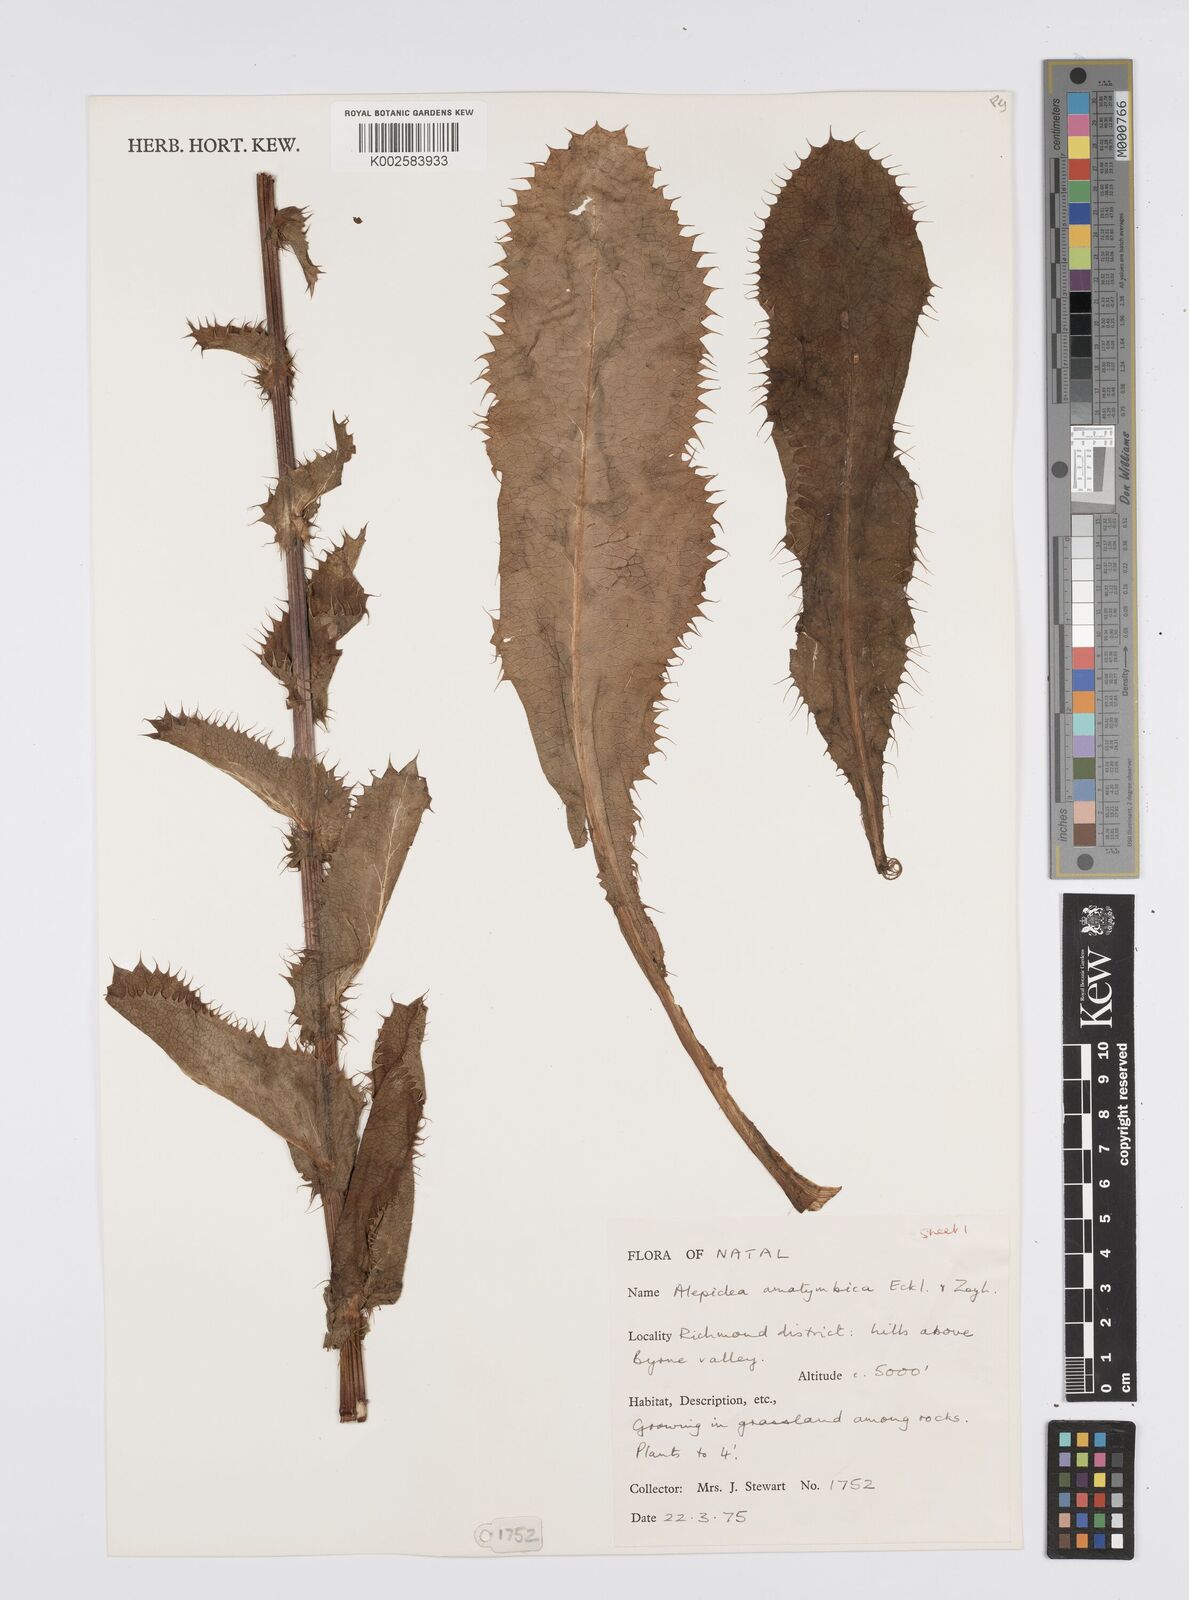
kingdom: Plantae
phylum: Tracheophyta
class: Magnoliopsida
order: Apiales
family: Apiaceae
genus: Alepidea
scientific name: Alepidea amatymbica
